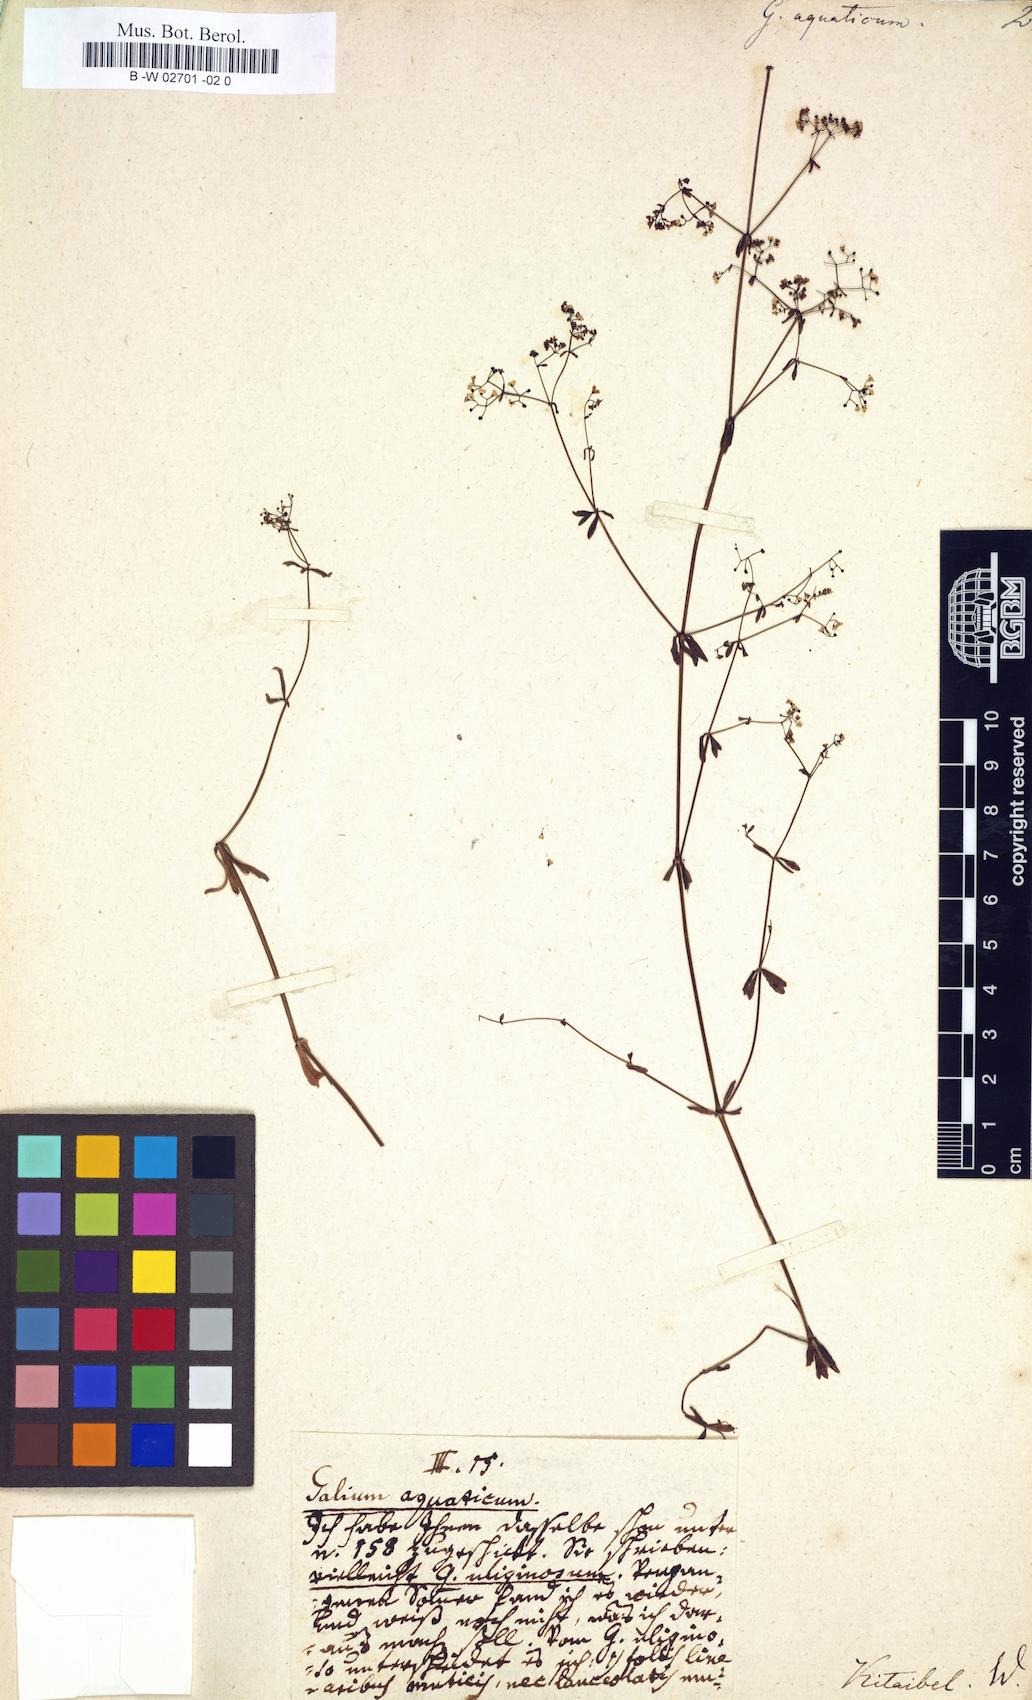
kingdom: Plantae
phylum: Tracheophyta
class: Magnoliopsida
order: Gentianales
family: Rubiaceae
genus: Galium
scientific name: Galium uliginosum
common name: Fen bedstraw
